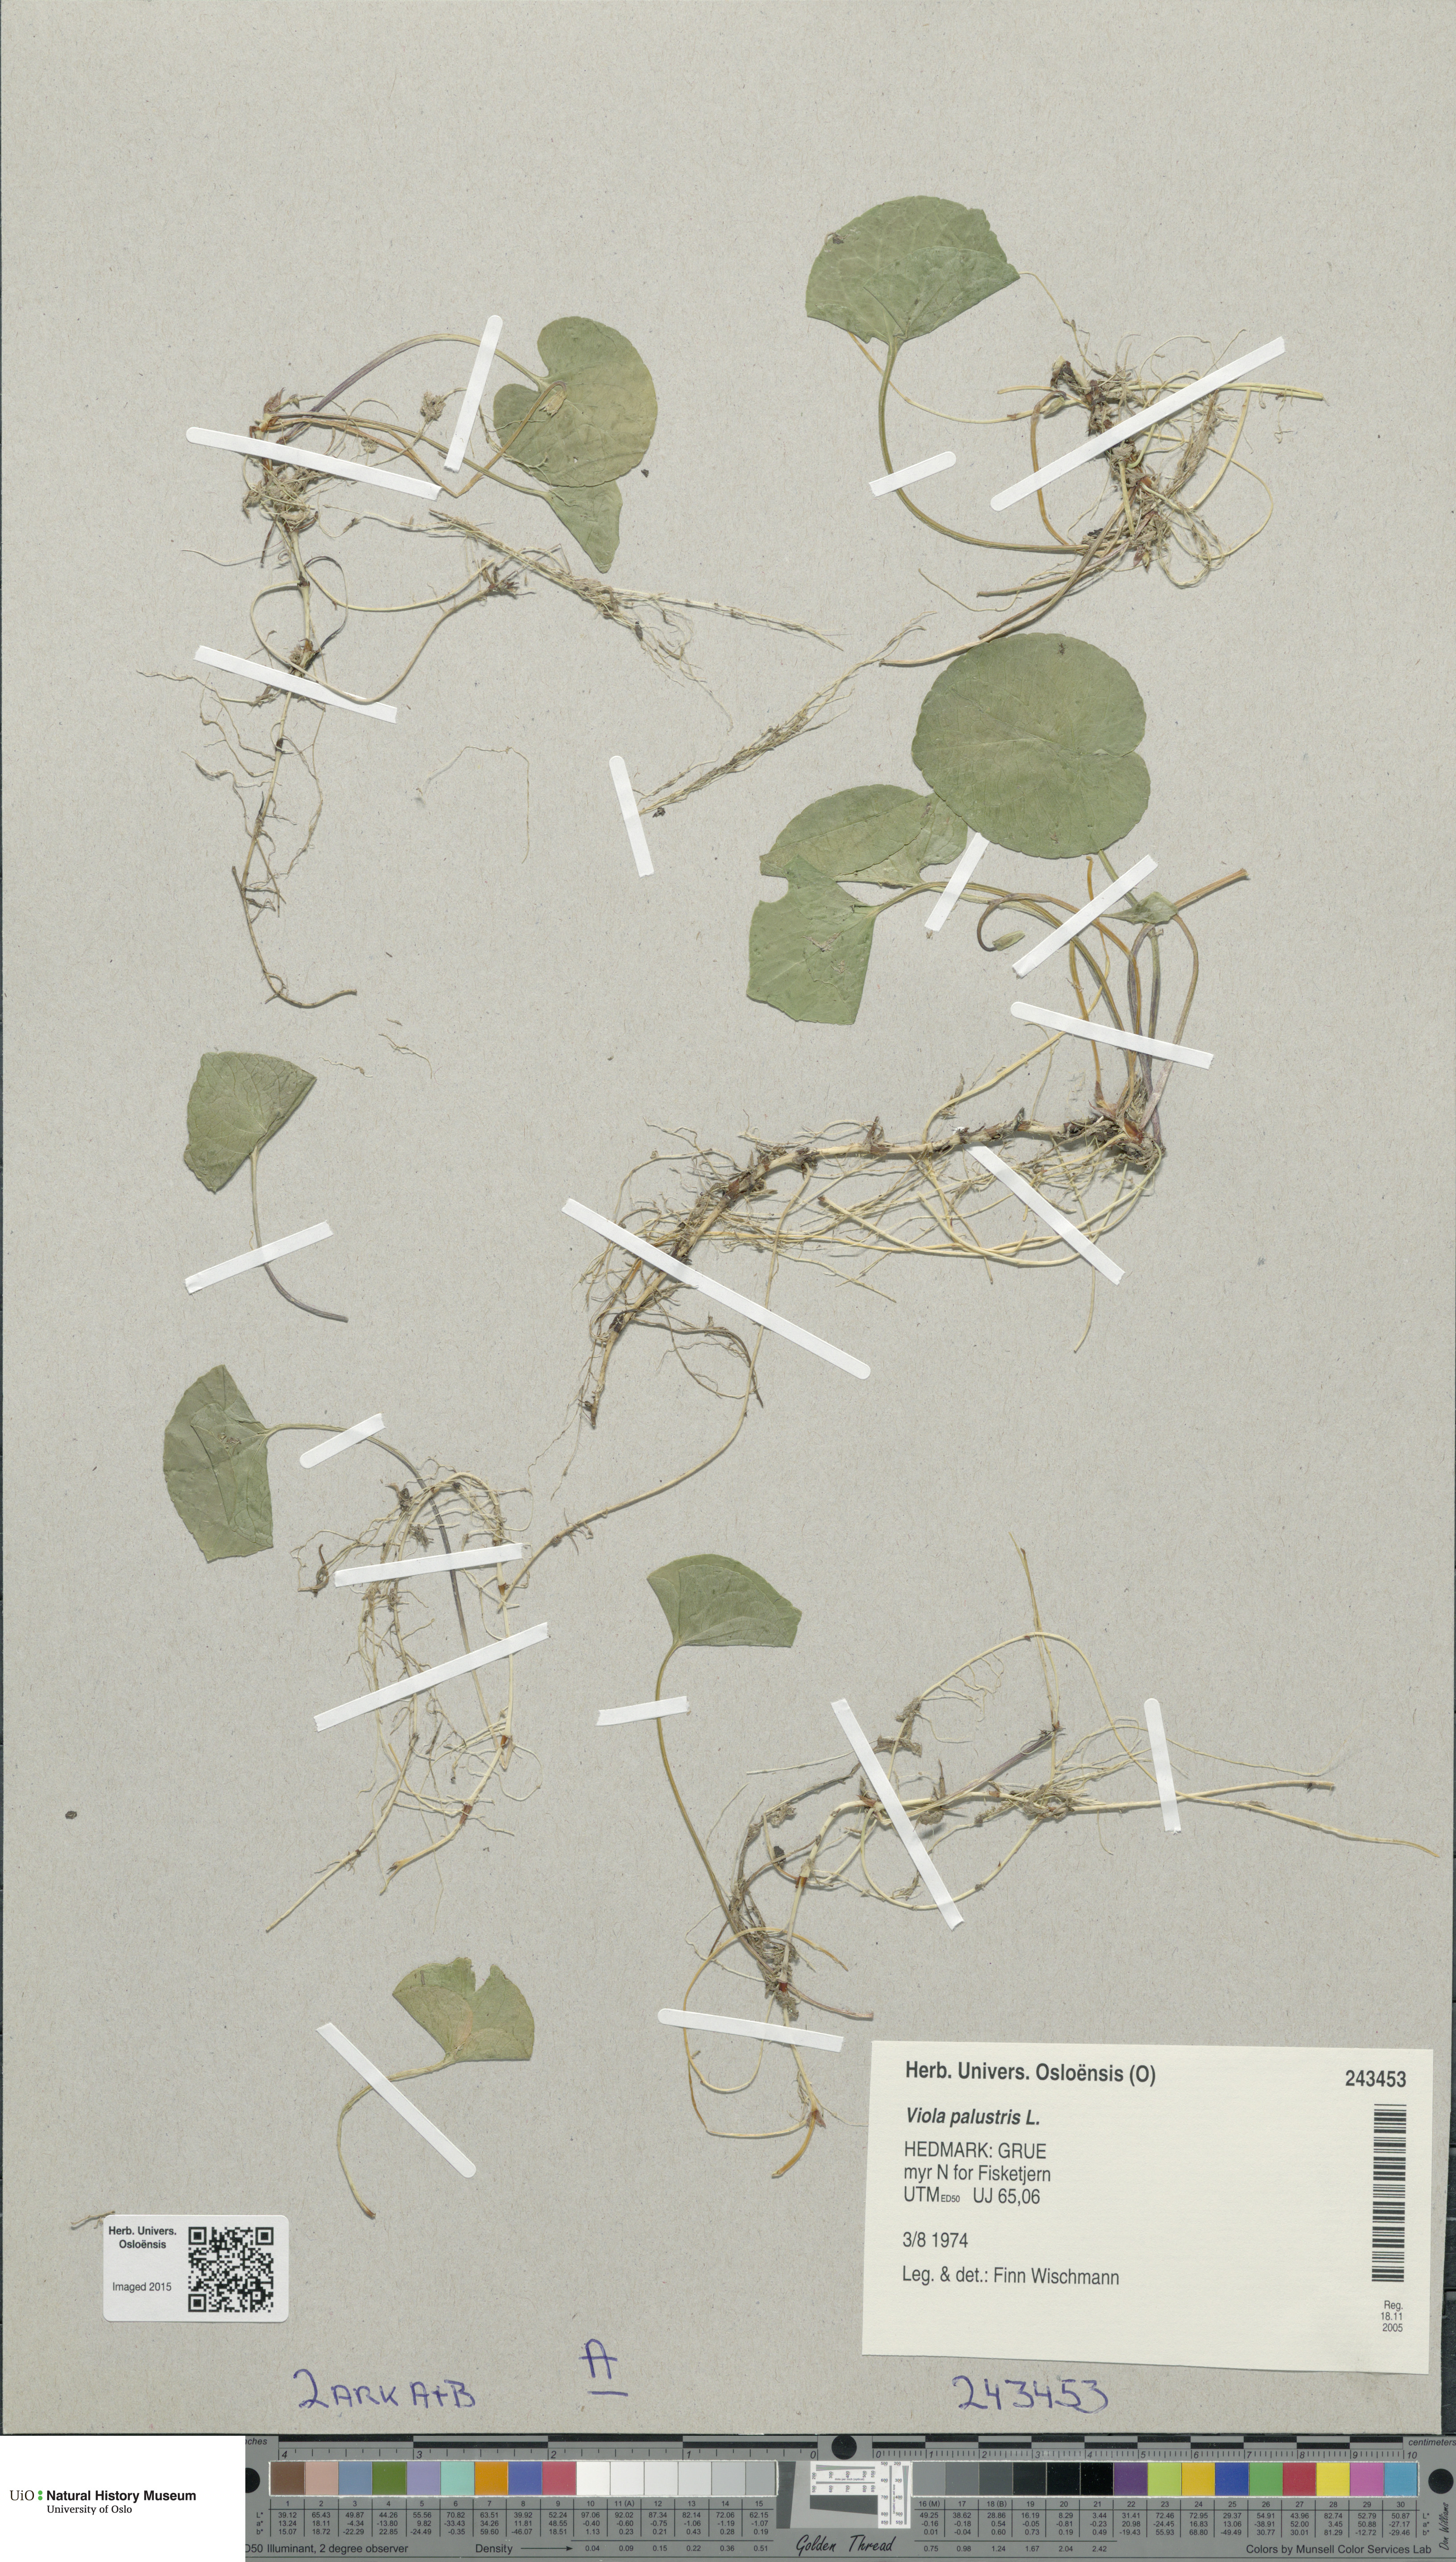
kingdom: Plantae
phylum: Tracheophyta
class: Magnoliopsida
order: Malpighiales
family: Violaceae
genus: Viola
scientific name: Viola palustris
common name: Marsh violet
